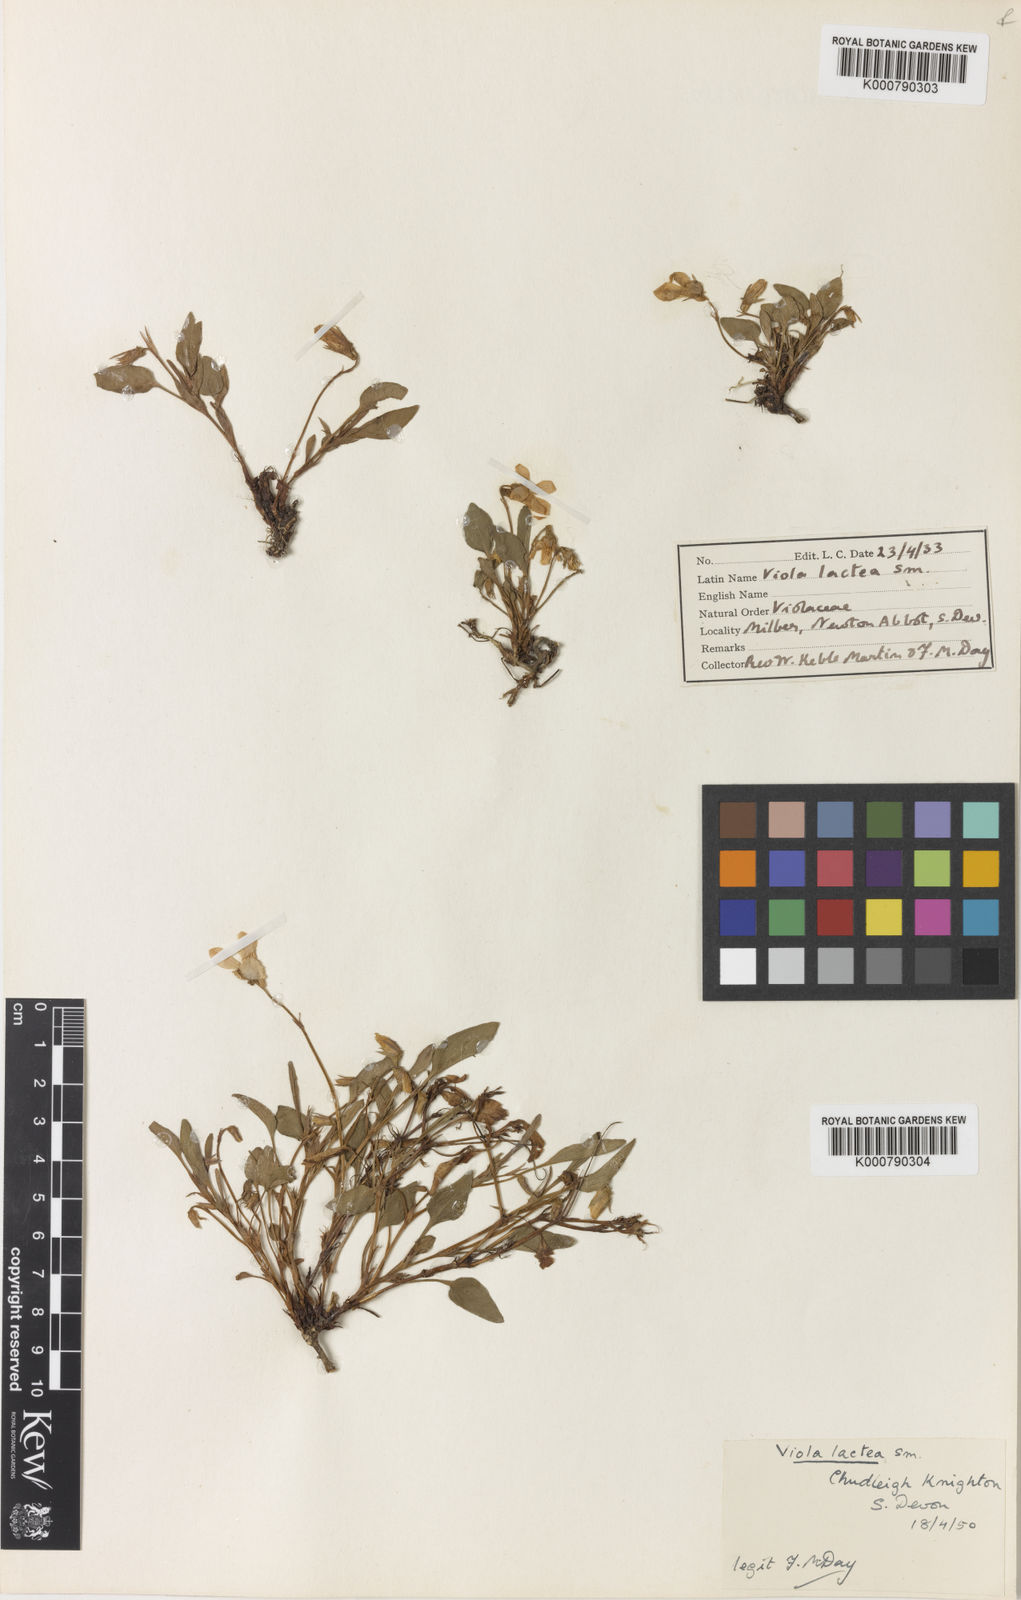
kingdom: Plantae
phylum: Tracheophyta
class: Magnoliopsida
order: Malpighiales
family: Violaceae
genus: Viola
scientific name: Viola lactea
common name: Pale dog-violet
